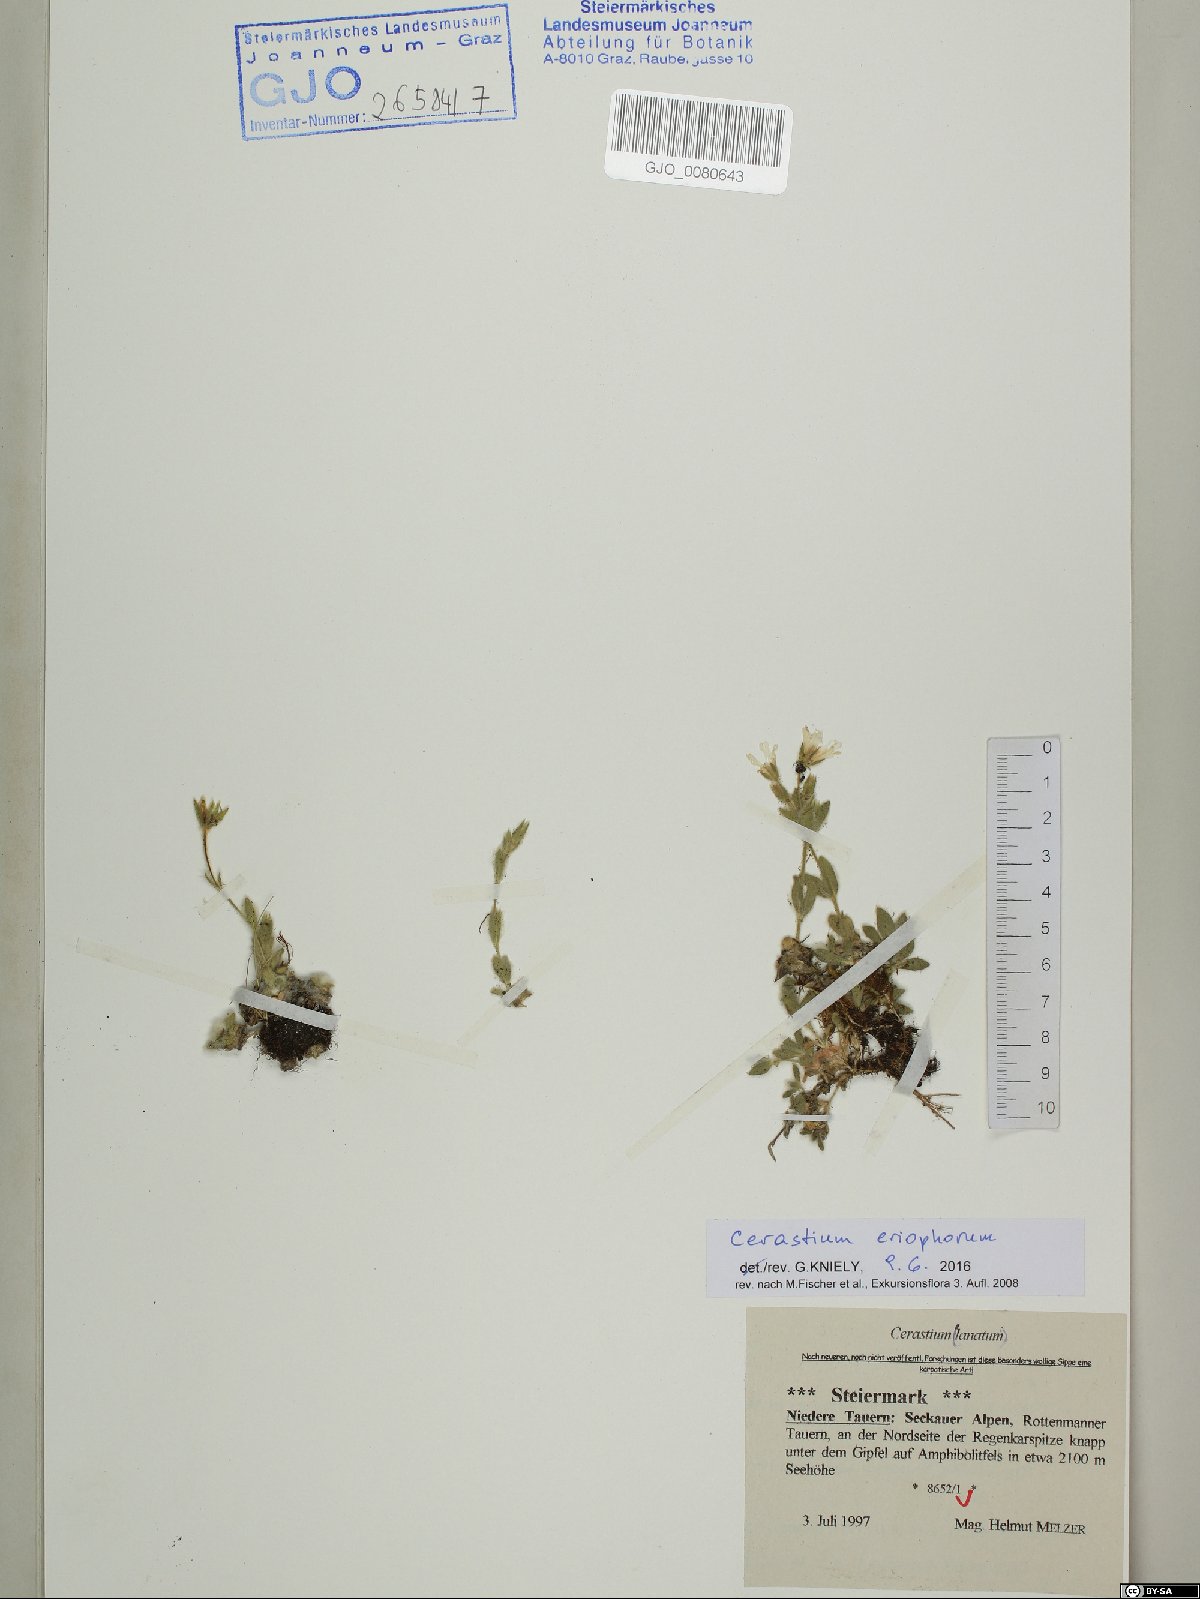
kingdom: Plantae
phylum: Tracheophyta
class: Magnoliopsida
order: Caryophyllales
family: Caryophyllaceae
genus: Cerastium
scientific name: Cerastium eriophorum
